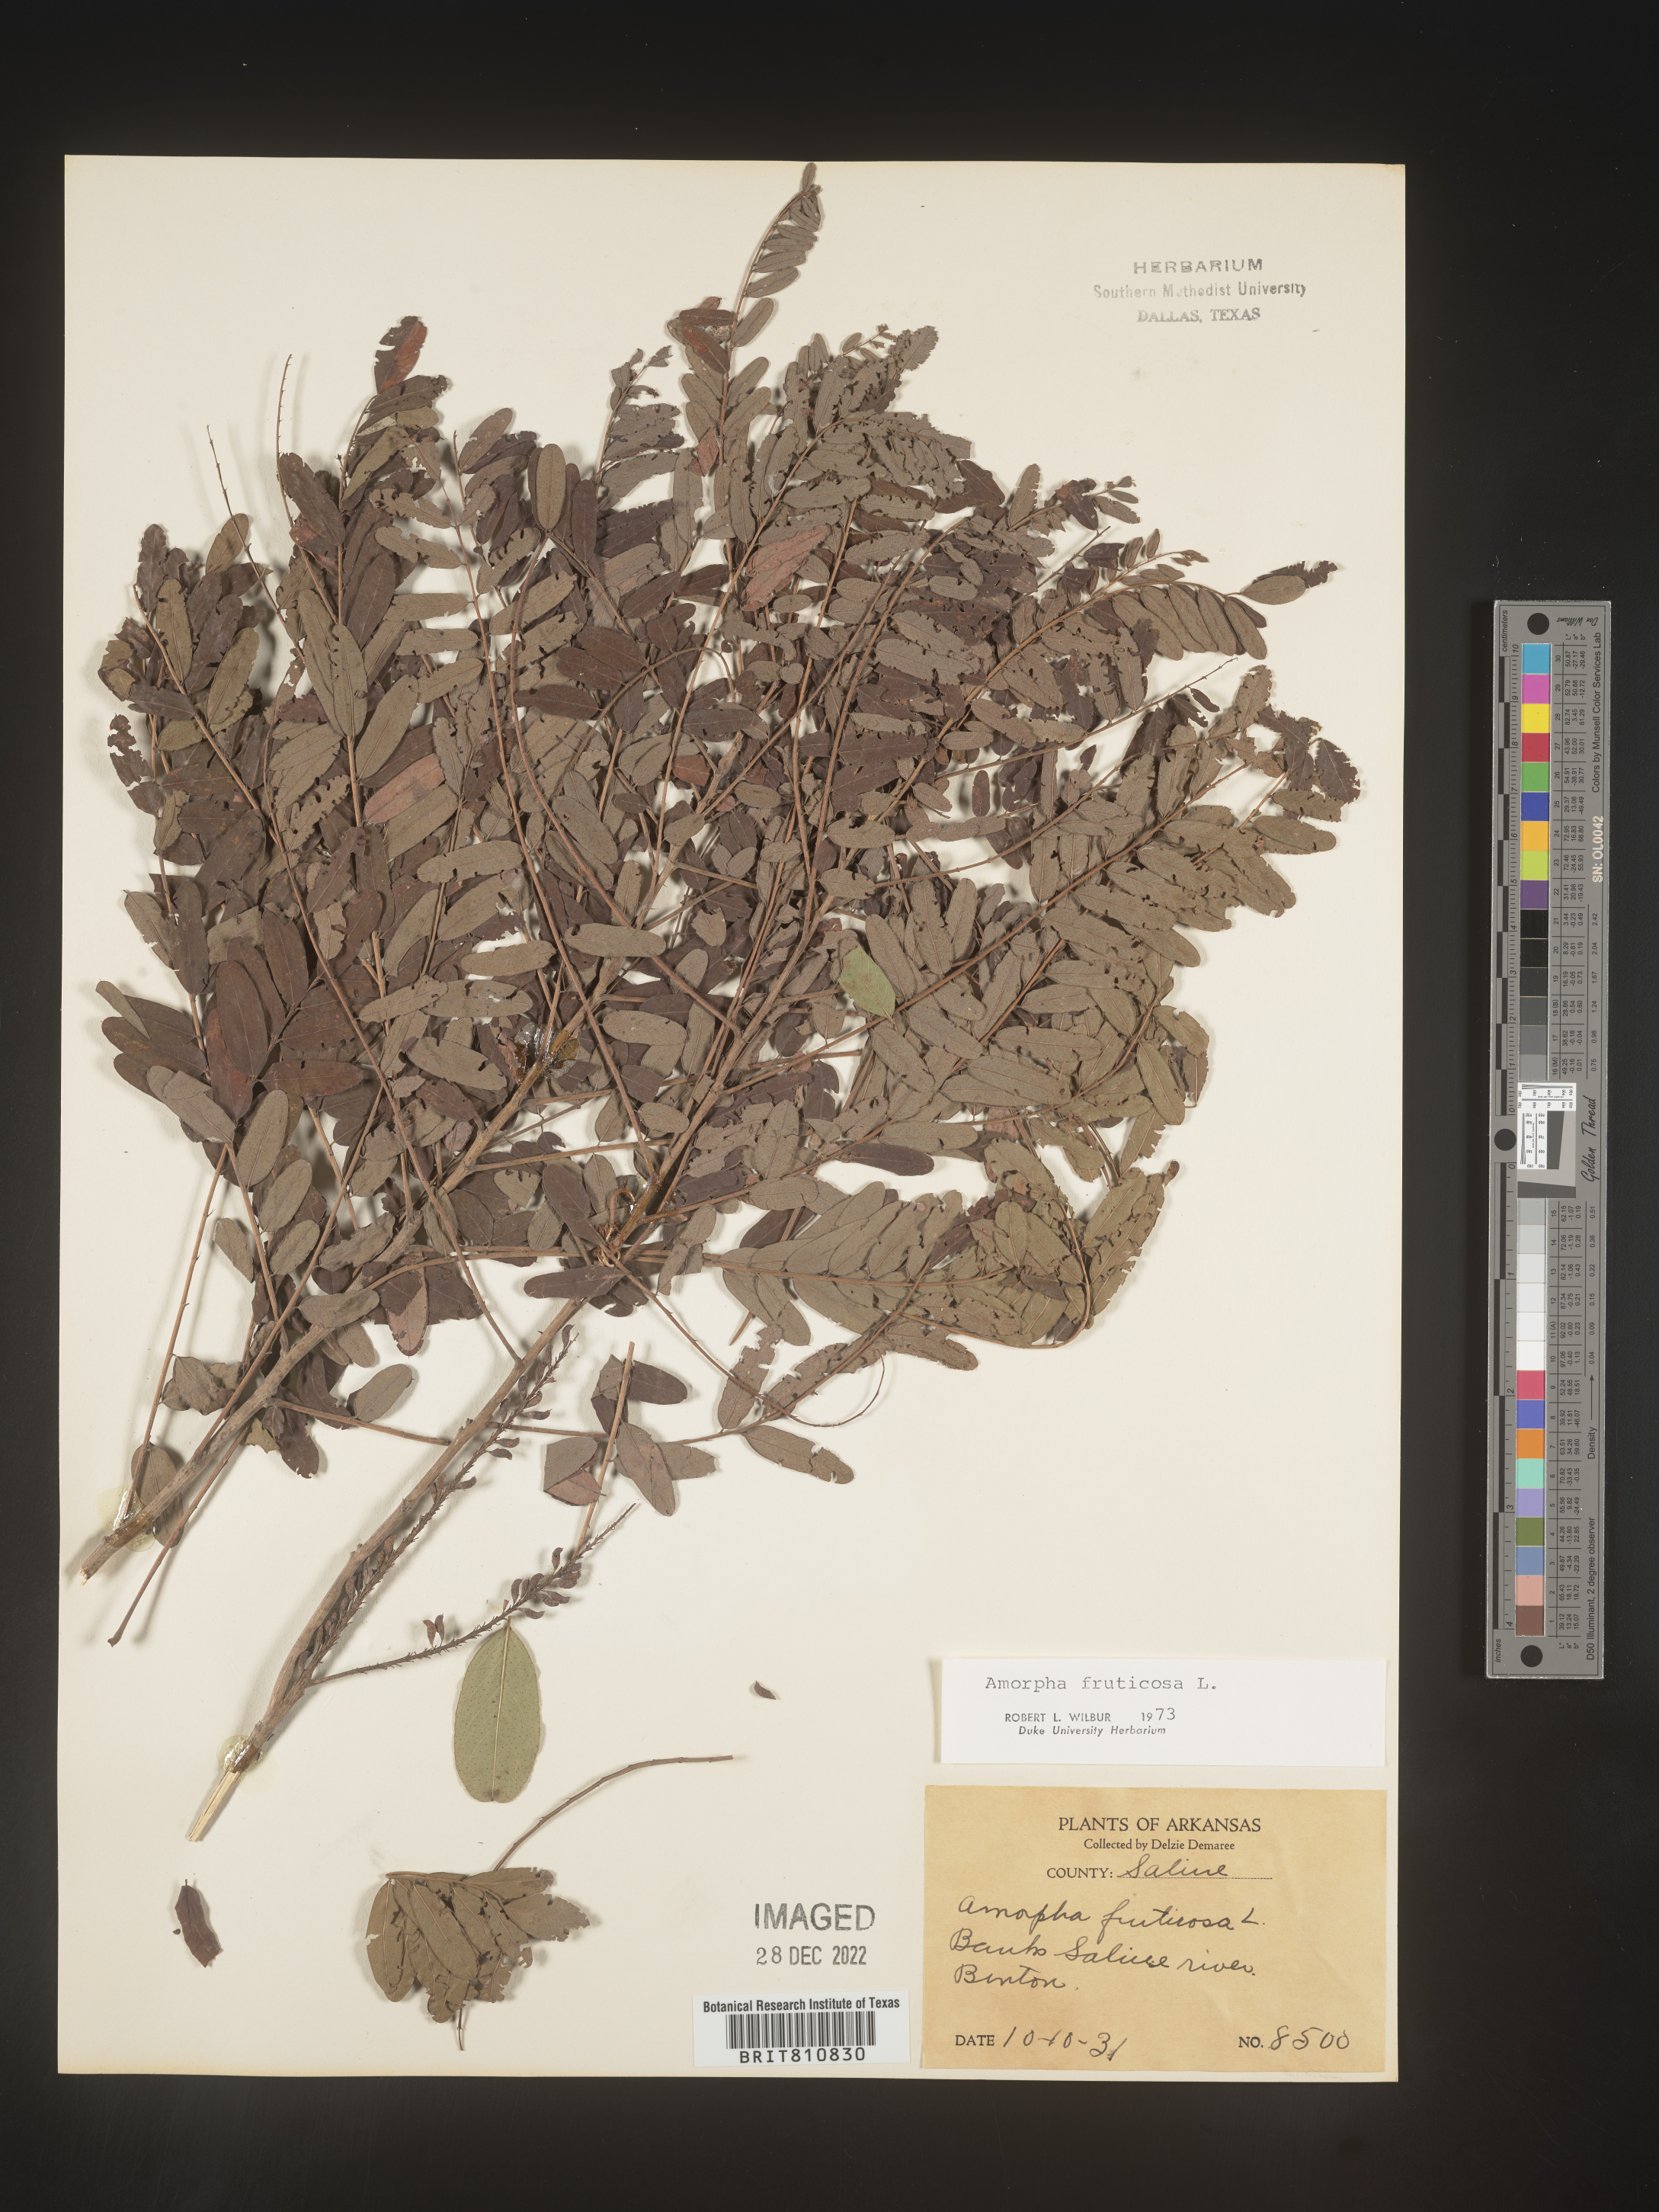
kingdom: Plantae
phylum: Tracheophyta
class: Magnoliopsida
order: Fabales
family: Fabaceae
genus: Amorpha
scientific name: Amorpha fruticosa
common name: False indigo
